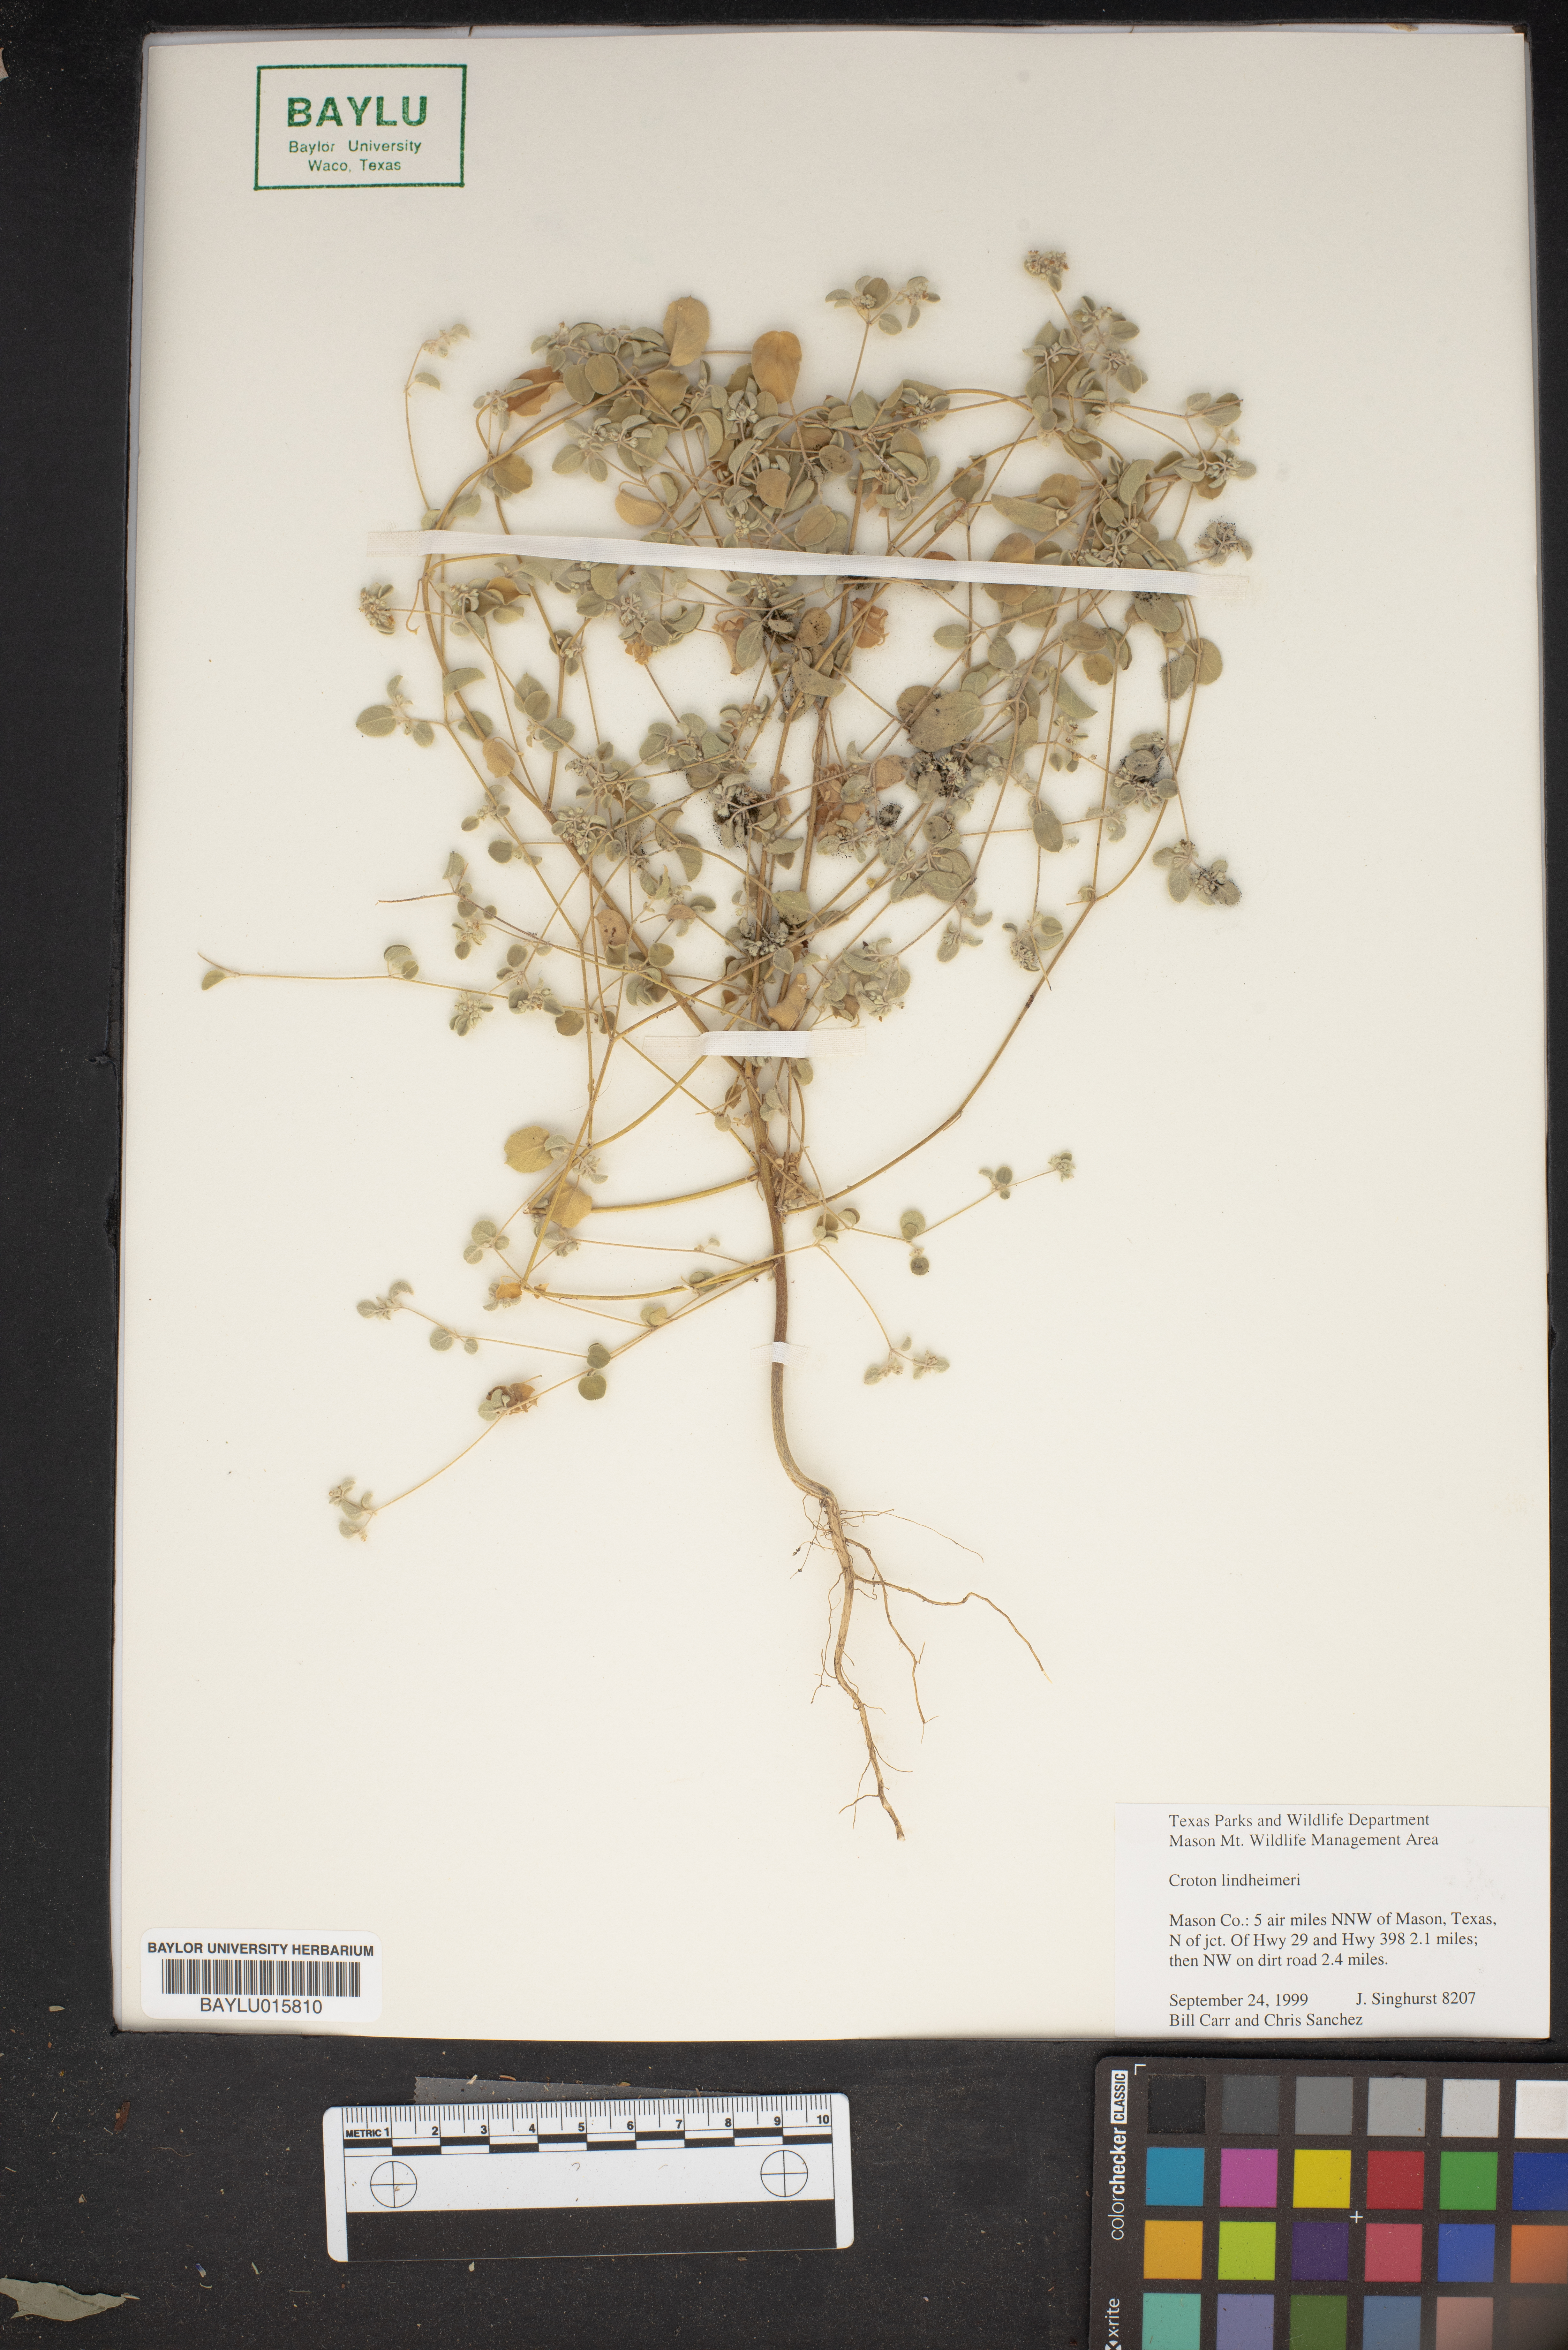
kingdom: Plantae
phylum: Tracheophyta
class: Magnoliopsida
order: Malpighiales
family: Euphorbiaceae
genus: Croton
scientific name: Croton lindheimeri
